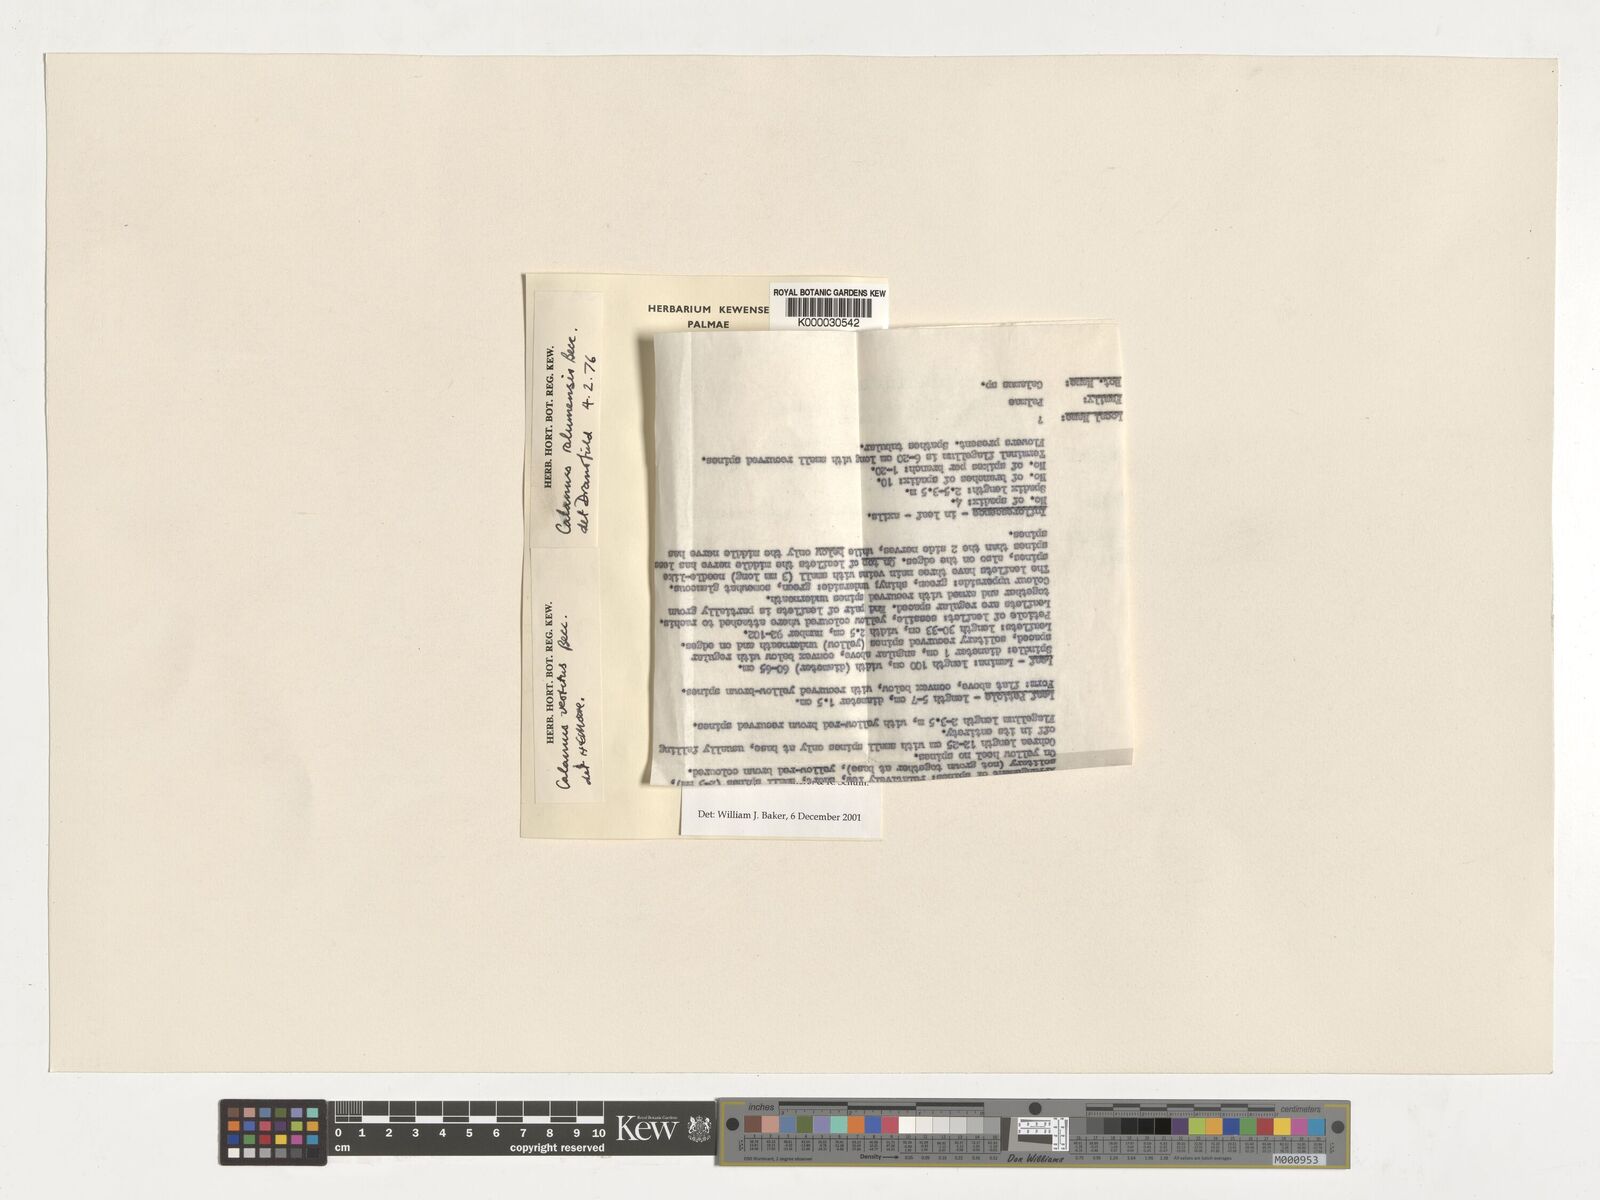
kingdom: Plantae
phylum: Tracheophyta
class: Liliopsida
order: Arecales
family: Arecaceae
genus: Calamus
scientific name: Calamus longipinna
